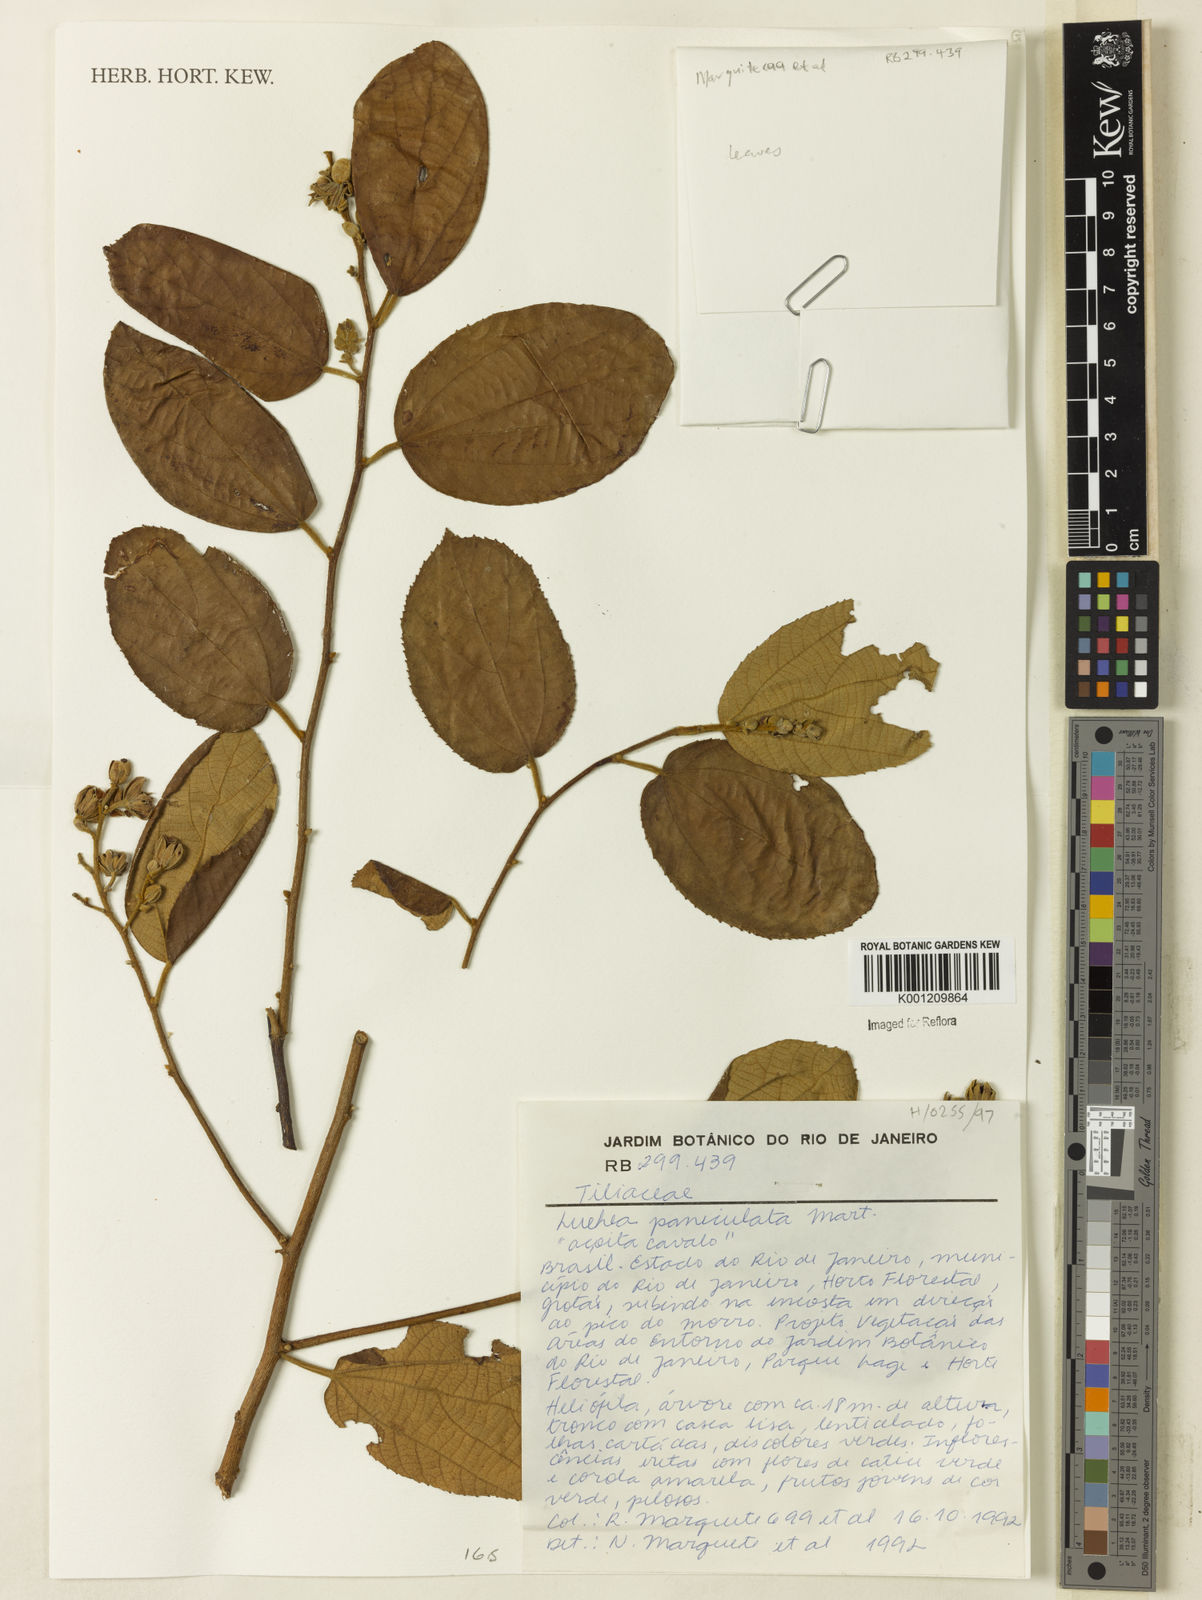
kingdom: Plantae
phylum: Tracheophyta
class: Magnoliopsida
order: Malvales
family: Malvaceae
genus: Luehea
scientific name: Luehea paniculata
